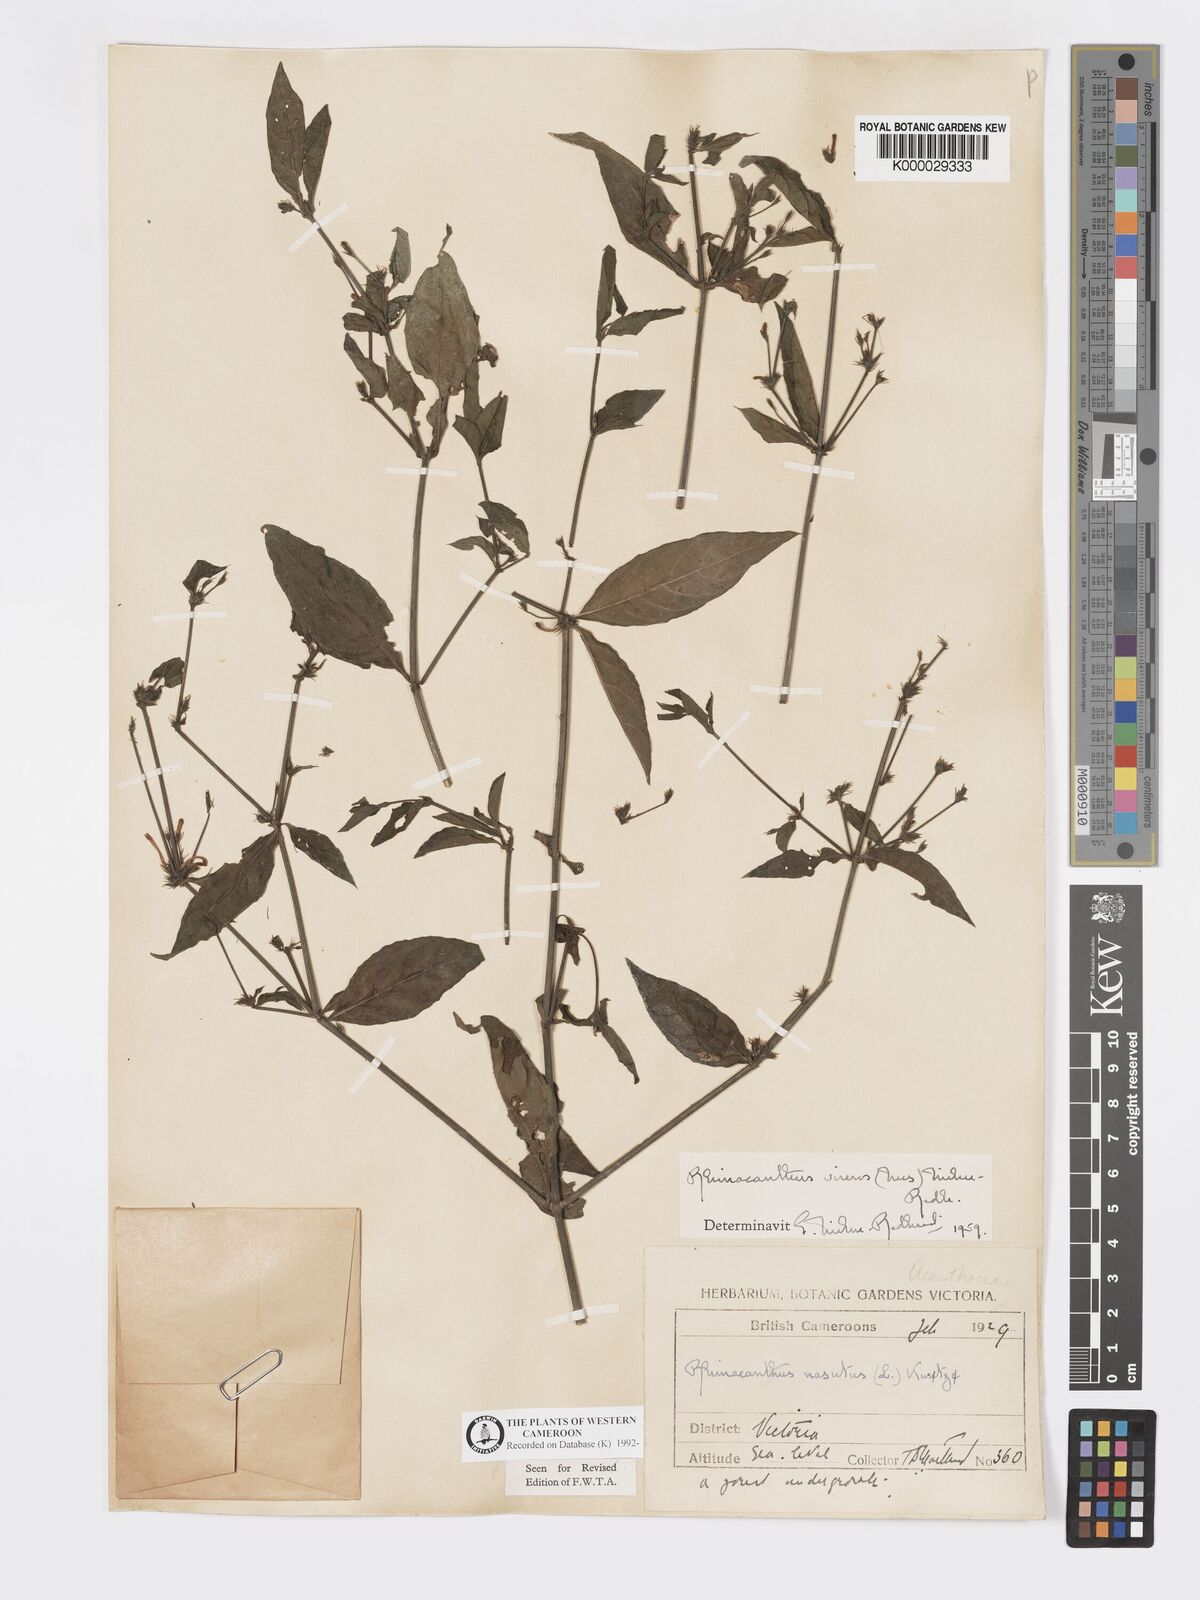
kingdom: Plantae
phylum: Tracheophyta
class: Magnoliopsida
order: Lamiales
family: Acanthaceae
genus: Rhinacanthus
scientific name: Rhinacanthus virens
